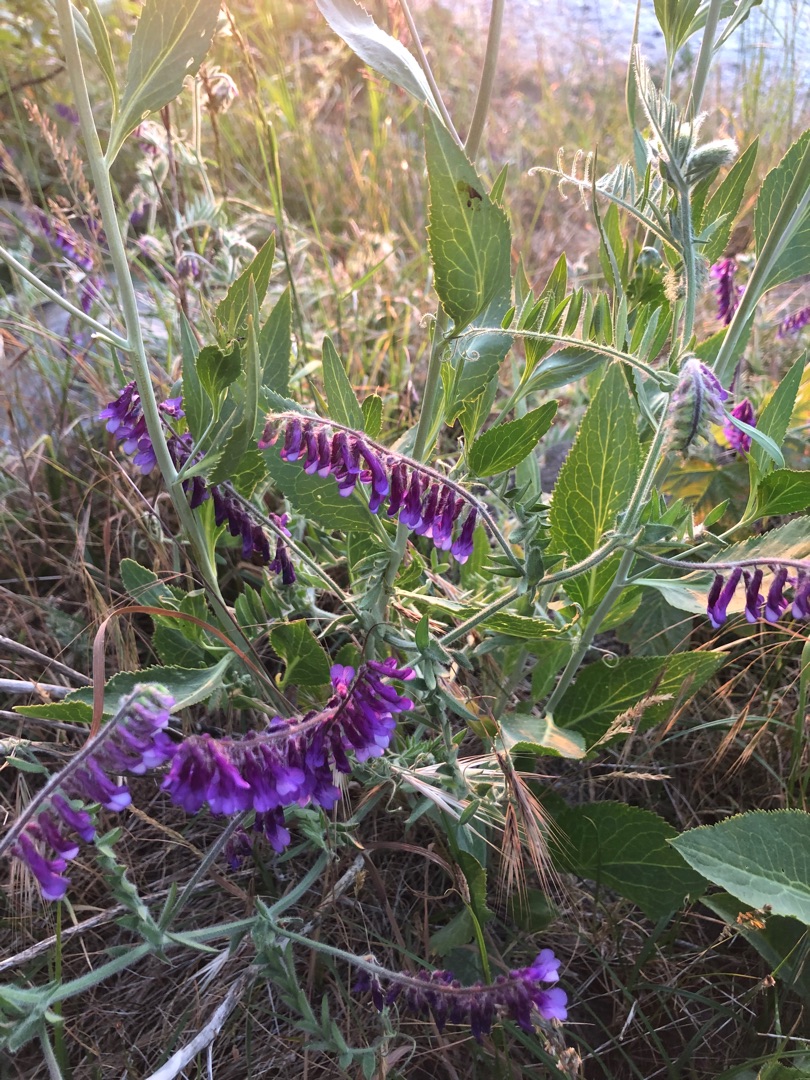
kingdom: Plantae
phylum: Tracheophyta
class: Magnoliopsida
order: Fabales
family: Fabaceae
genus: Vicia
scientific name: Vicia cracca
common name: Muse-vikke
